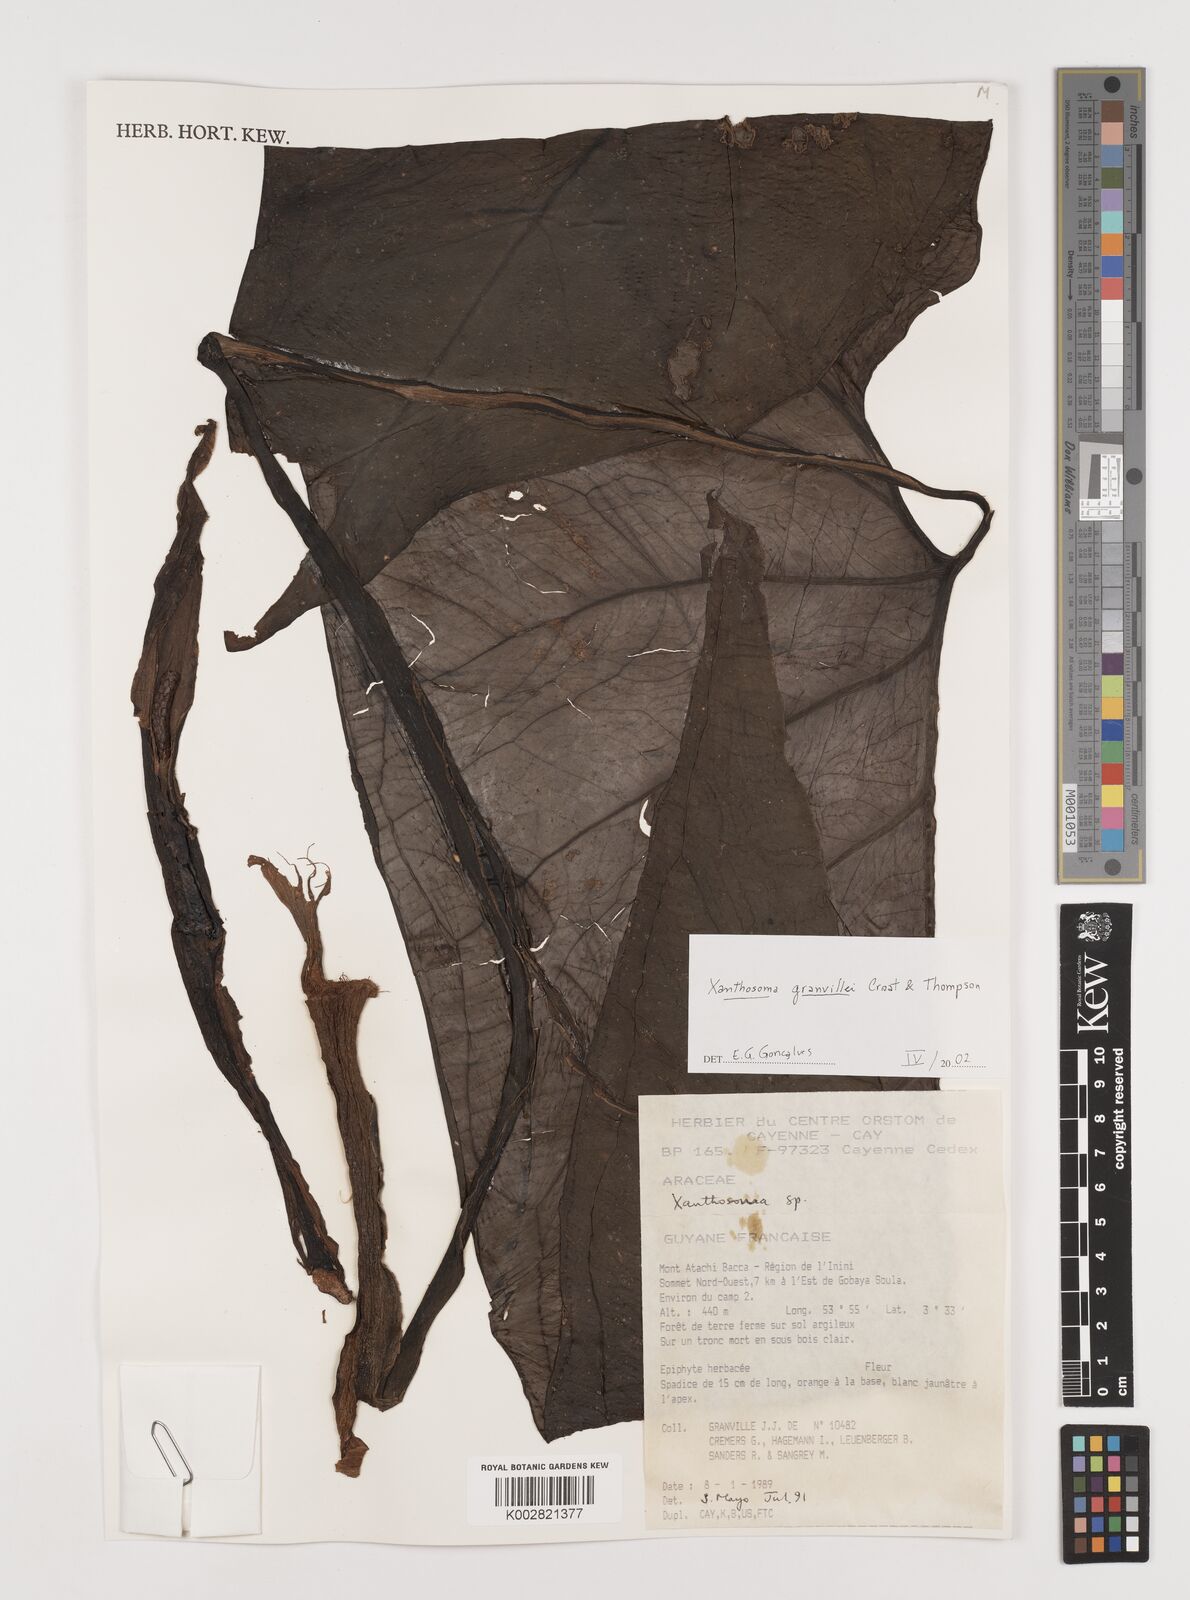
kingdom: Plantae
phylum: Tracheophyta
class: Liliopsida
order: Alismatales
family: Araceae
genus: Xanthosoma
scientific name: Xanthosoma granvillei
